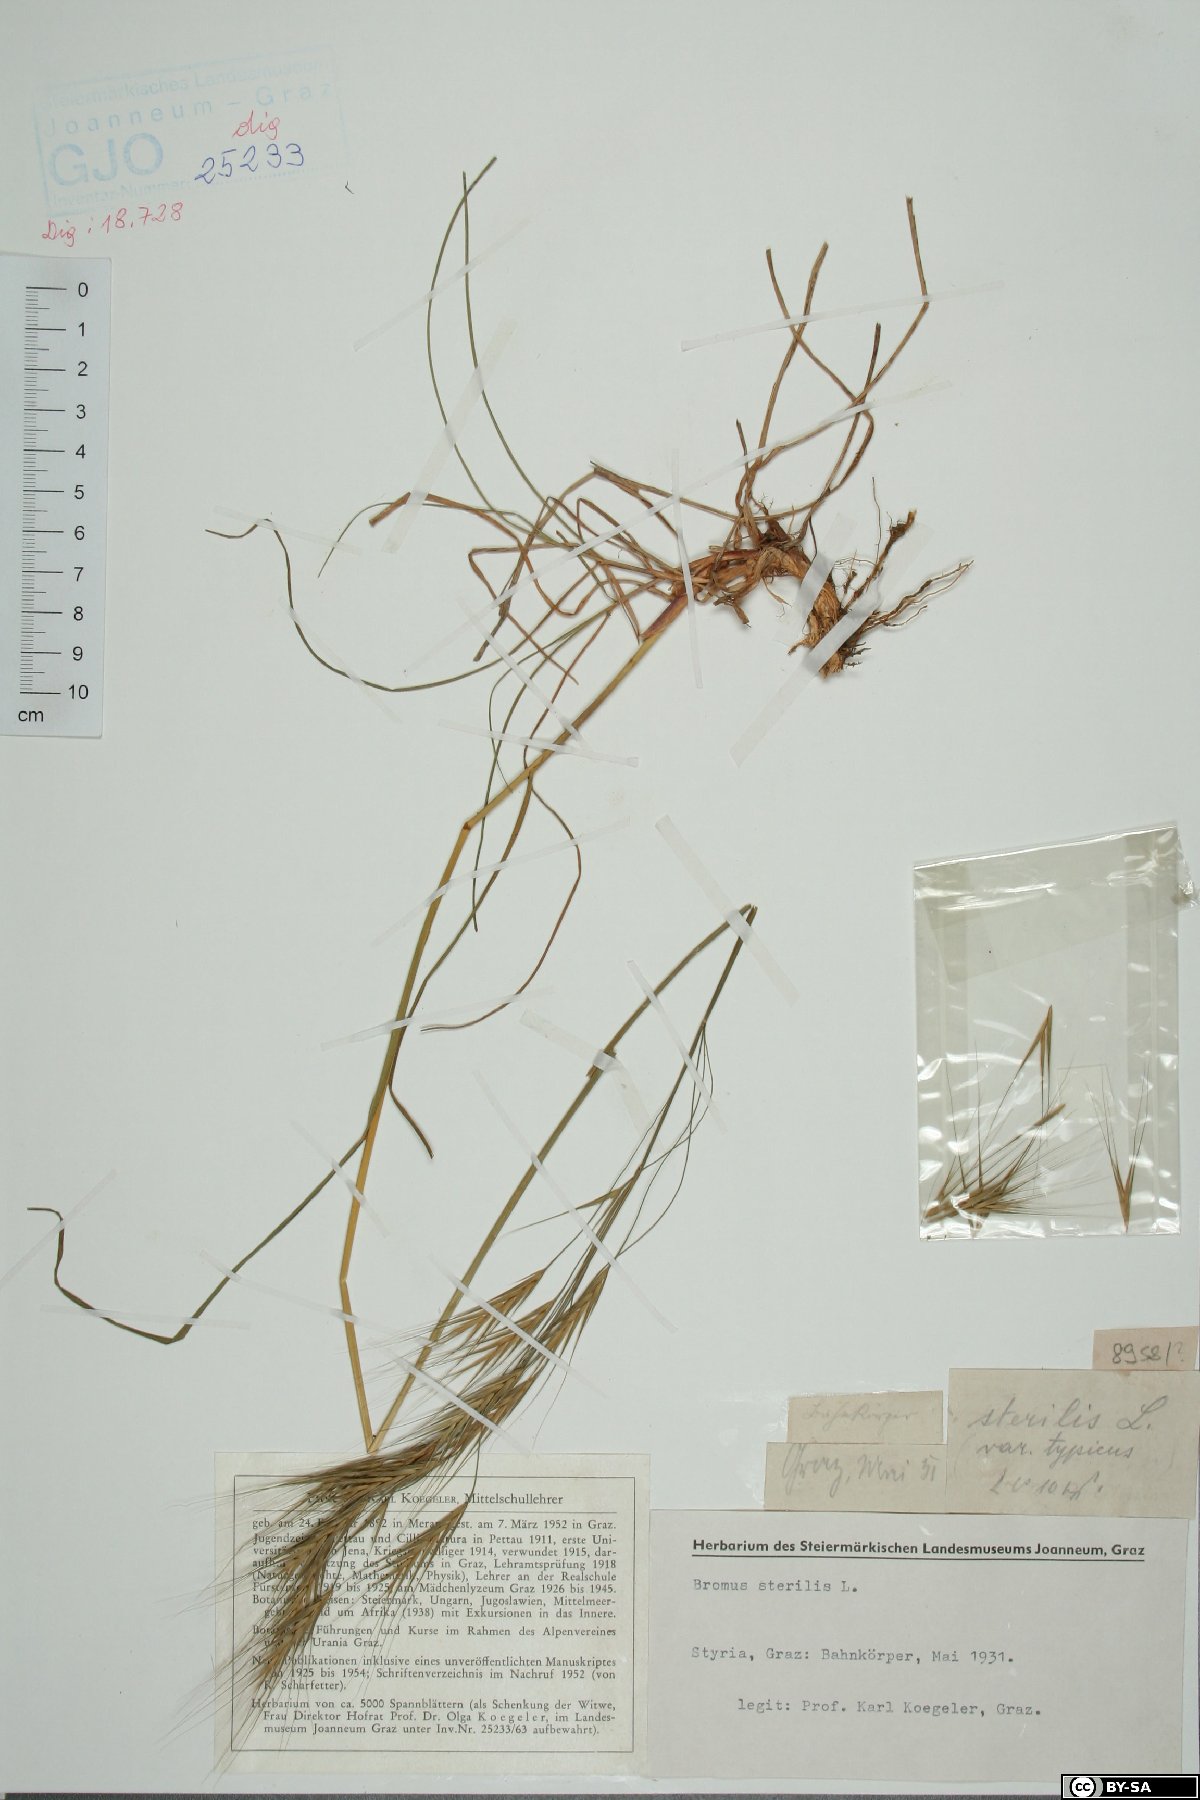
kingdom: Plantae
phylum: Tracheophyta
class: Liliopsida
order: Poales
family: Poaceae
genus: Bromus
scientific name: Bromus sterilis
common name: Poverty brome
